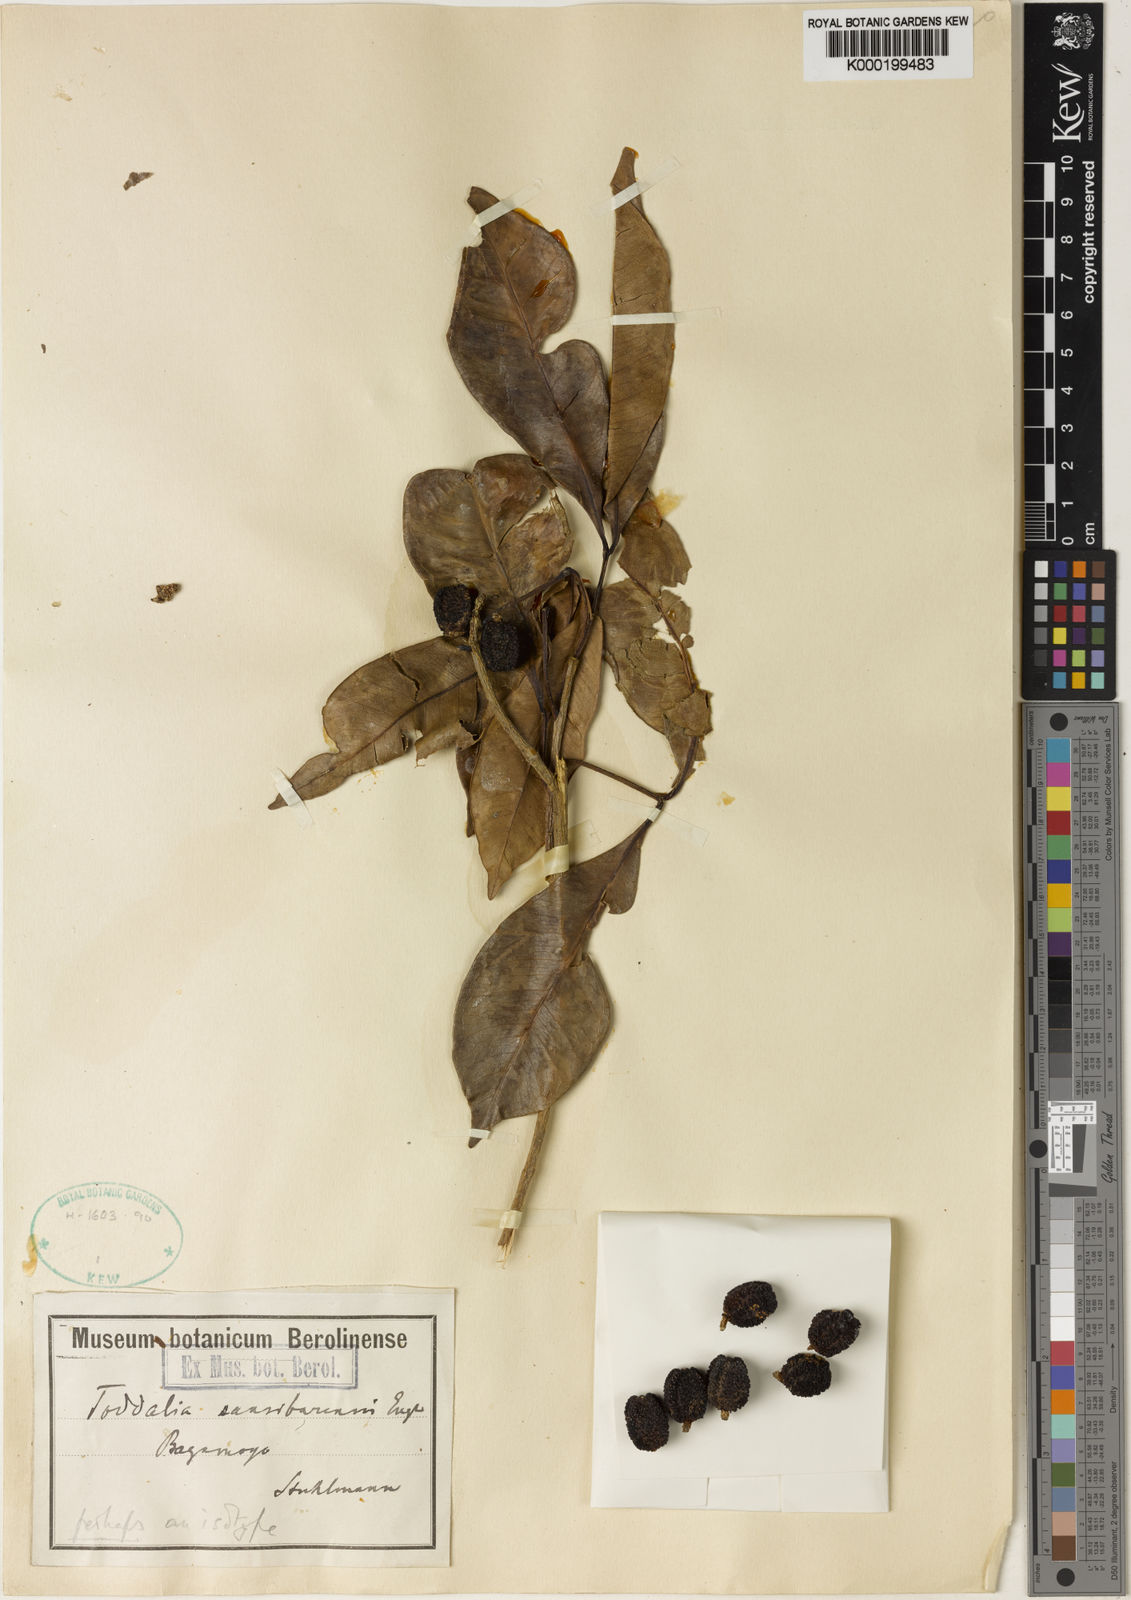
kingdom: Plantae
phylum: Tracheophyta
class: Magnoliopsida
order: Sapindales
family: Rutaceae
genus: Vepris
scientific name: Vepris sansibarensis
